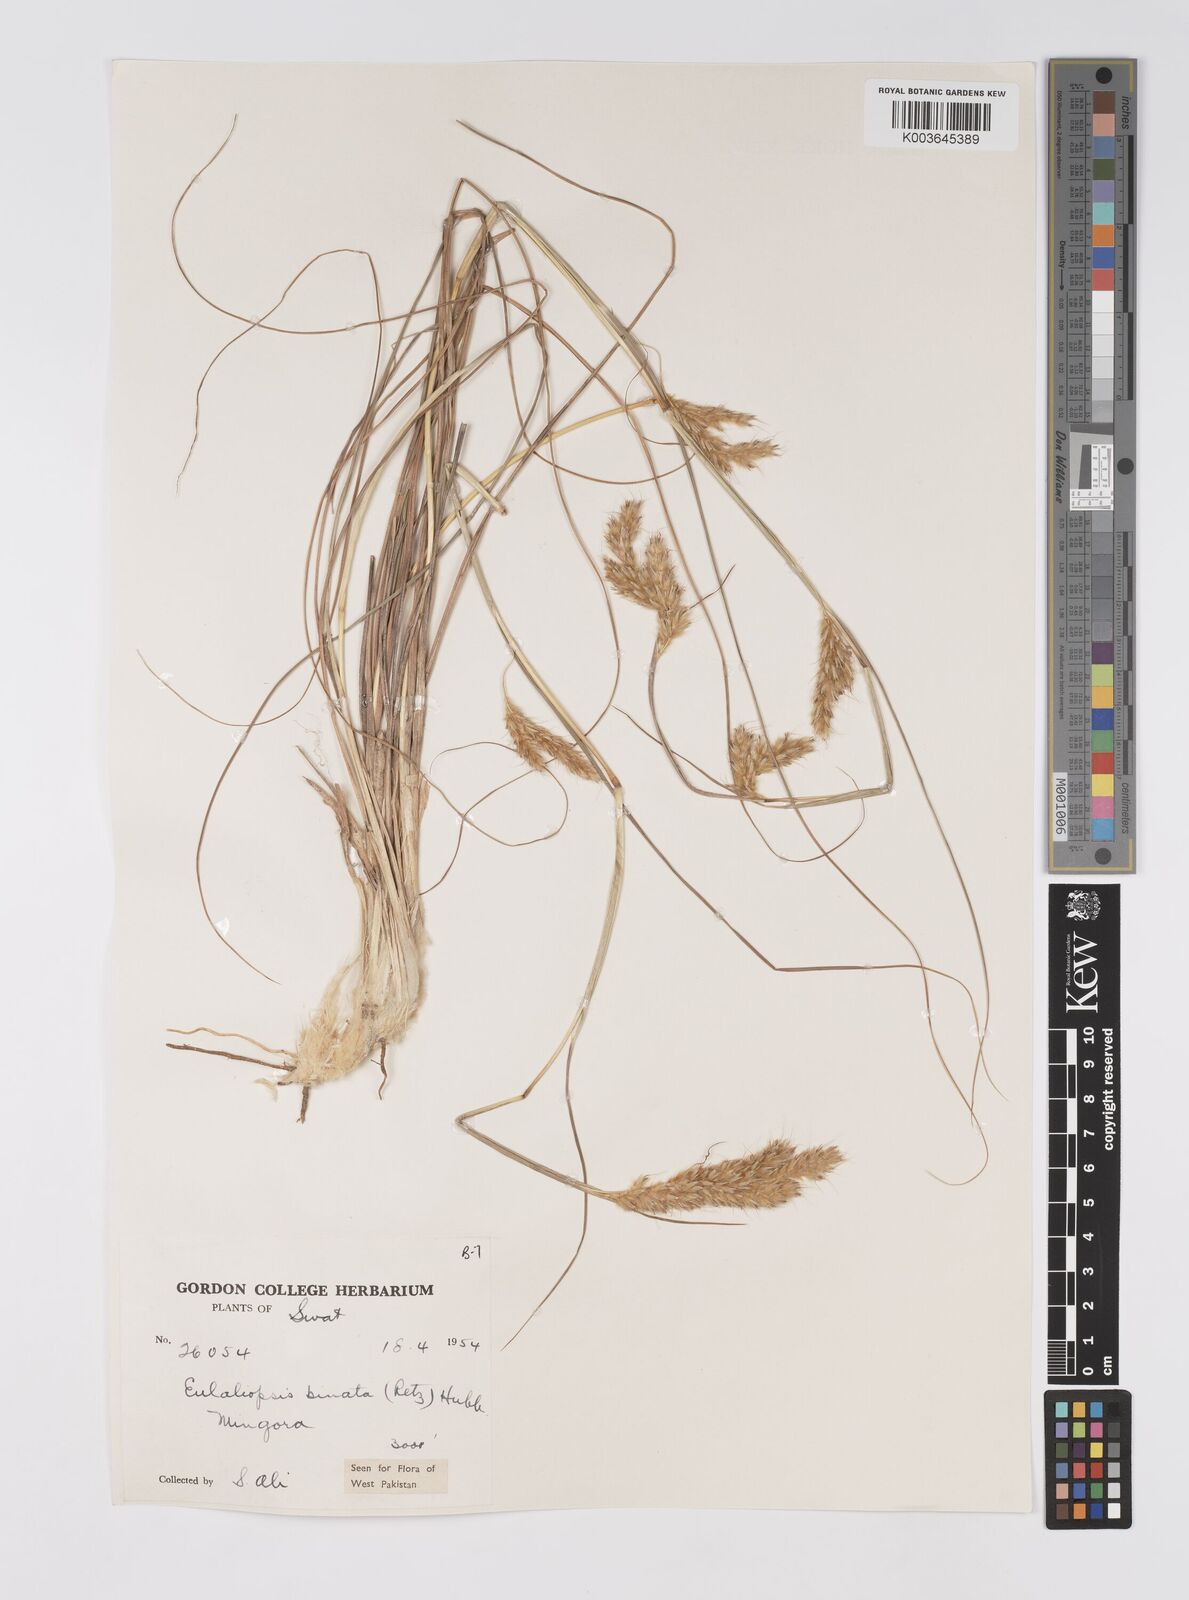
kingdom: Plantae
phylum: Tracheophyta
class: Liliopsida
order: Poales
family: Poaceae
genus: Eulaliopsis
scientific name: Eulaliopsis binata
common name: Baib grass
